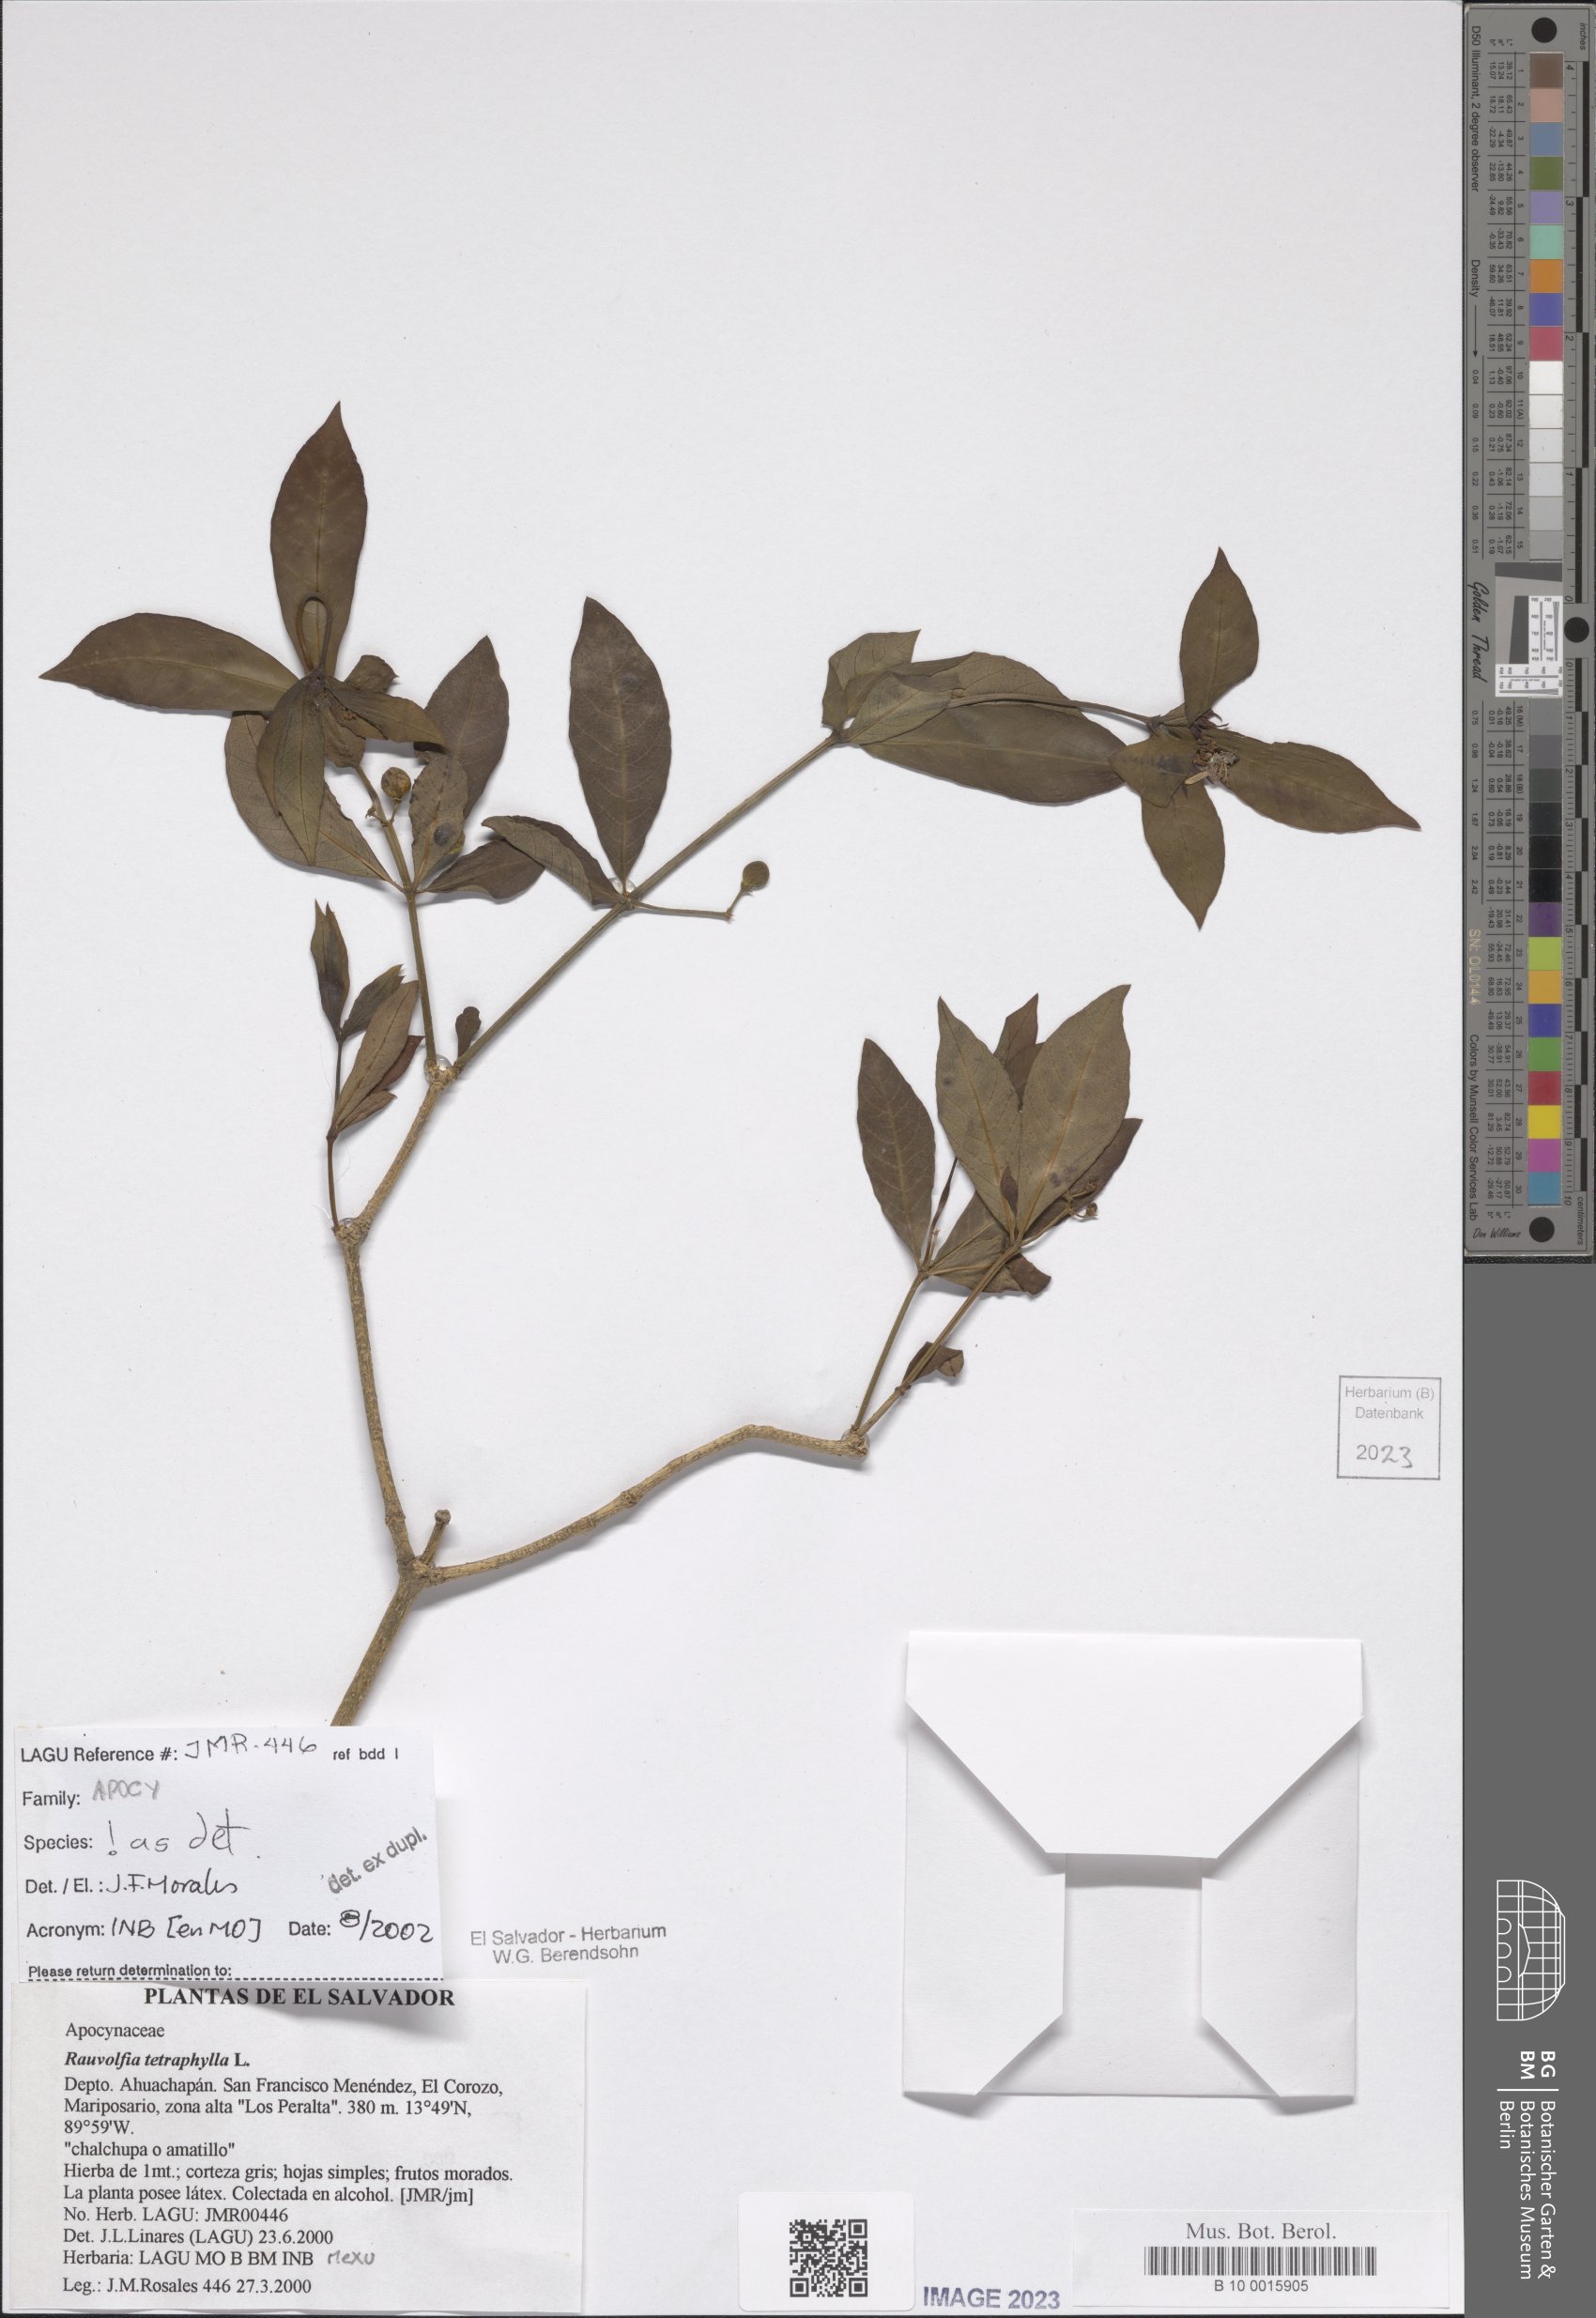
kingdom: Plantae
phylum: Tracheophyta
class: Magnoliopsida
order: Gentianales
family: Apocynaceae
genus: Rauvolfia
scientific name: Rauvolfia tetraphylla
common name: Four-leaf devil-pepper
